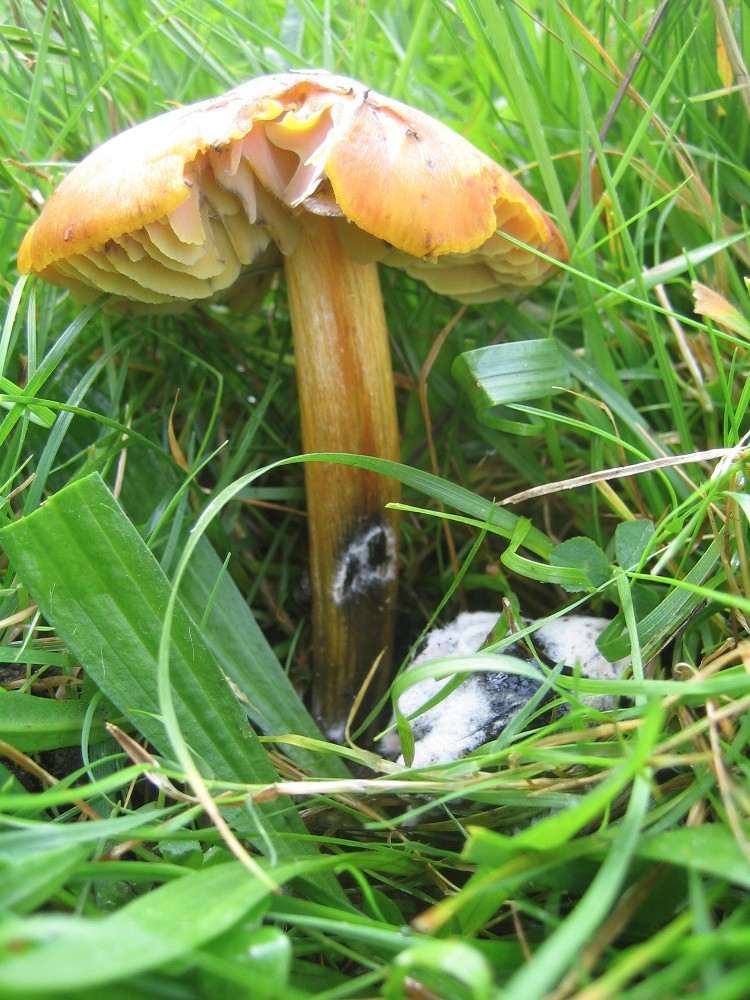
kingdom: Fungi
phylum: Basidiomycota
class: Agaricomycetes
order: Agaricales
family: Hygrophoraceae
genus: Hygrocybe
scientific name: Hygrocybe conica
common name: kegle-vokshat
